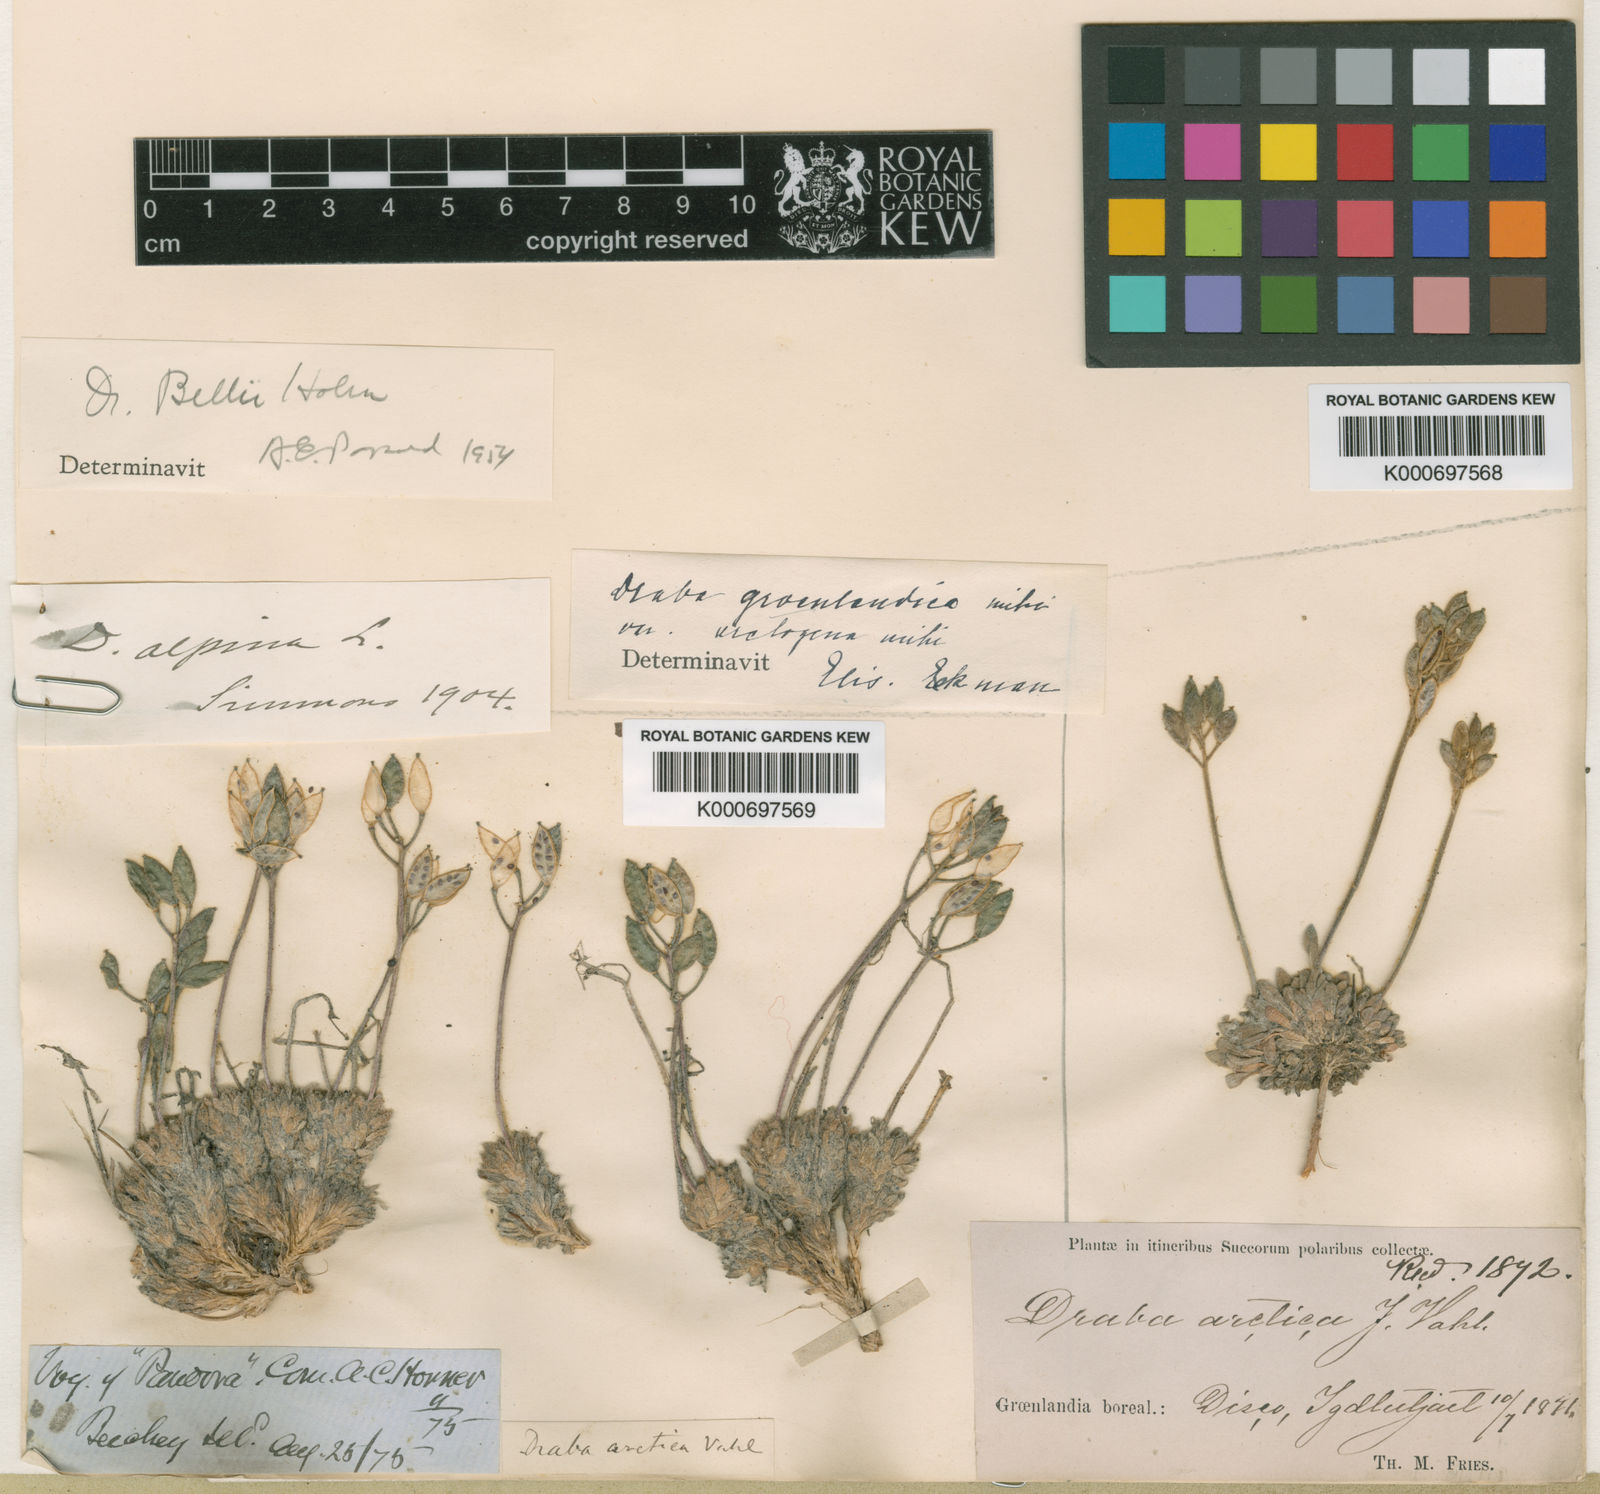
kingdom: Plantae
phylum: Tracheophyta
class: Magnoliopsida
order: Brassicales
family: Brassicaceae
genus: Draba
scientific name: Draba glabella
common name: Glaucous draba
